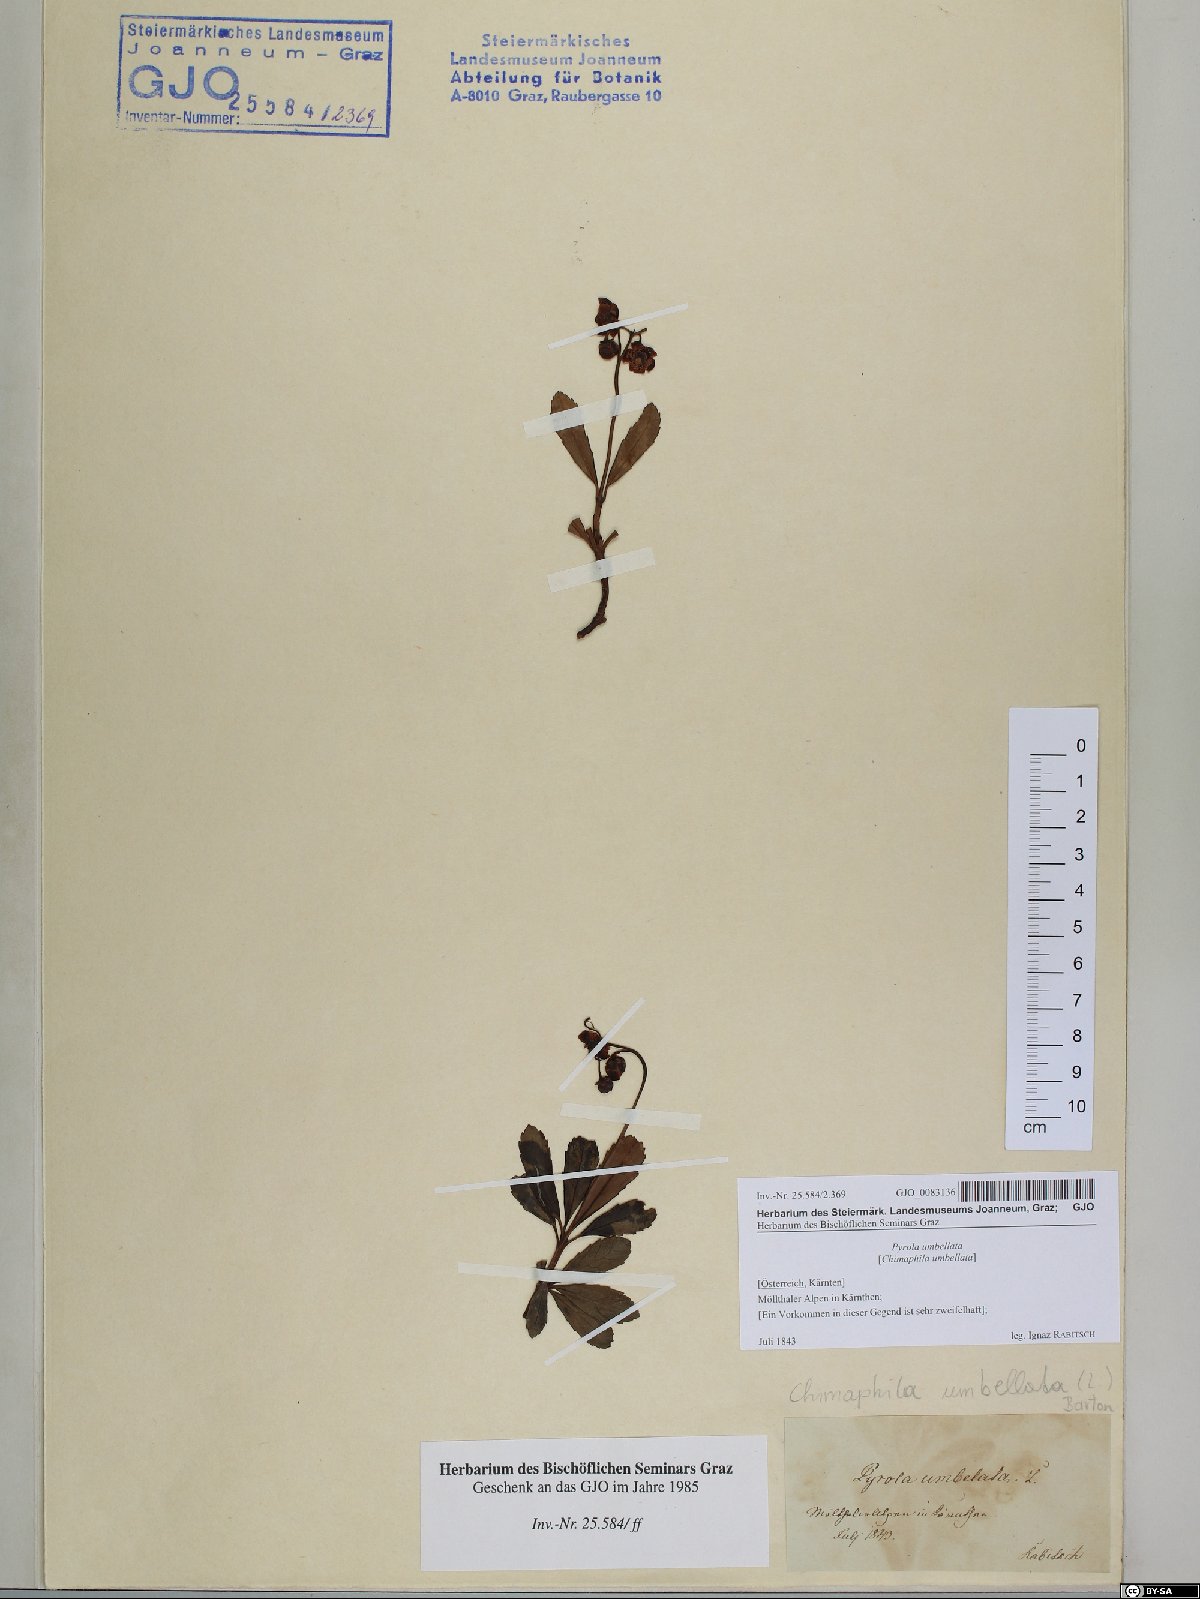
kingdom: Plantae
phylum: Tracheophyta
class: Magnoliopsida
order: Ericales
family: Ericaceae
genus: Chimaphila
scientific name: Chimaphila umbellata
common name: Pipsissewa
